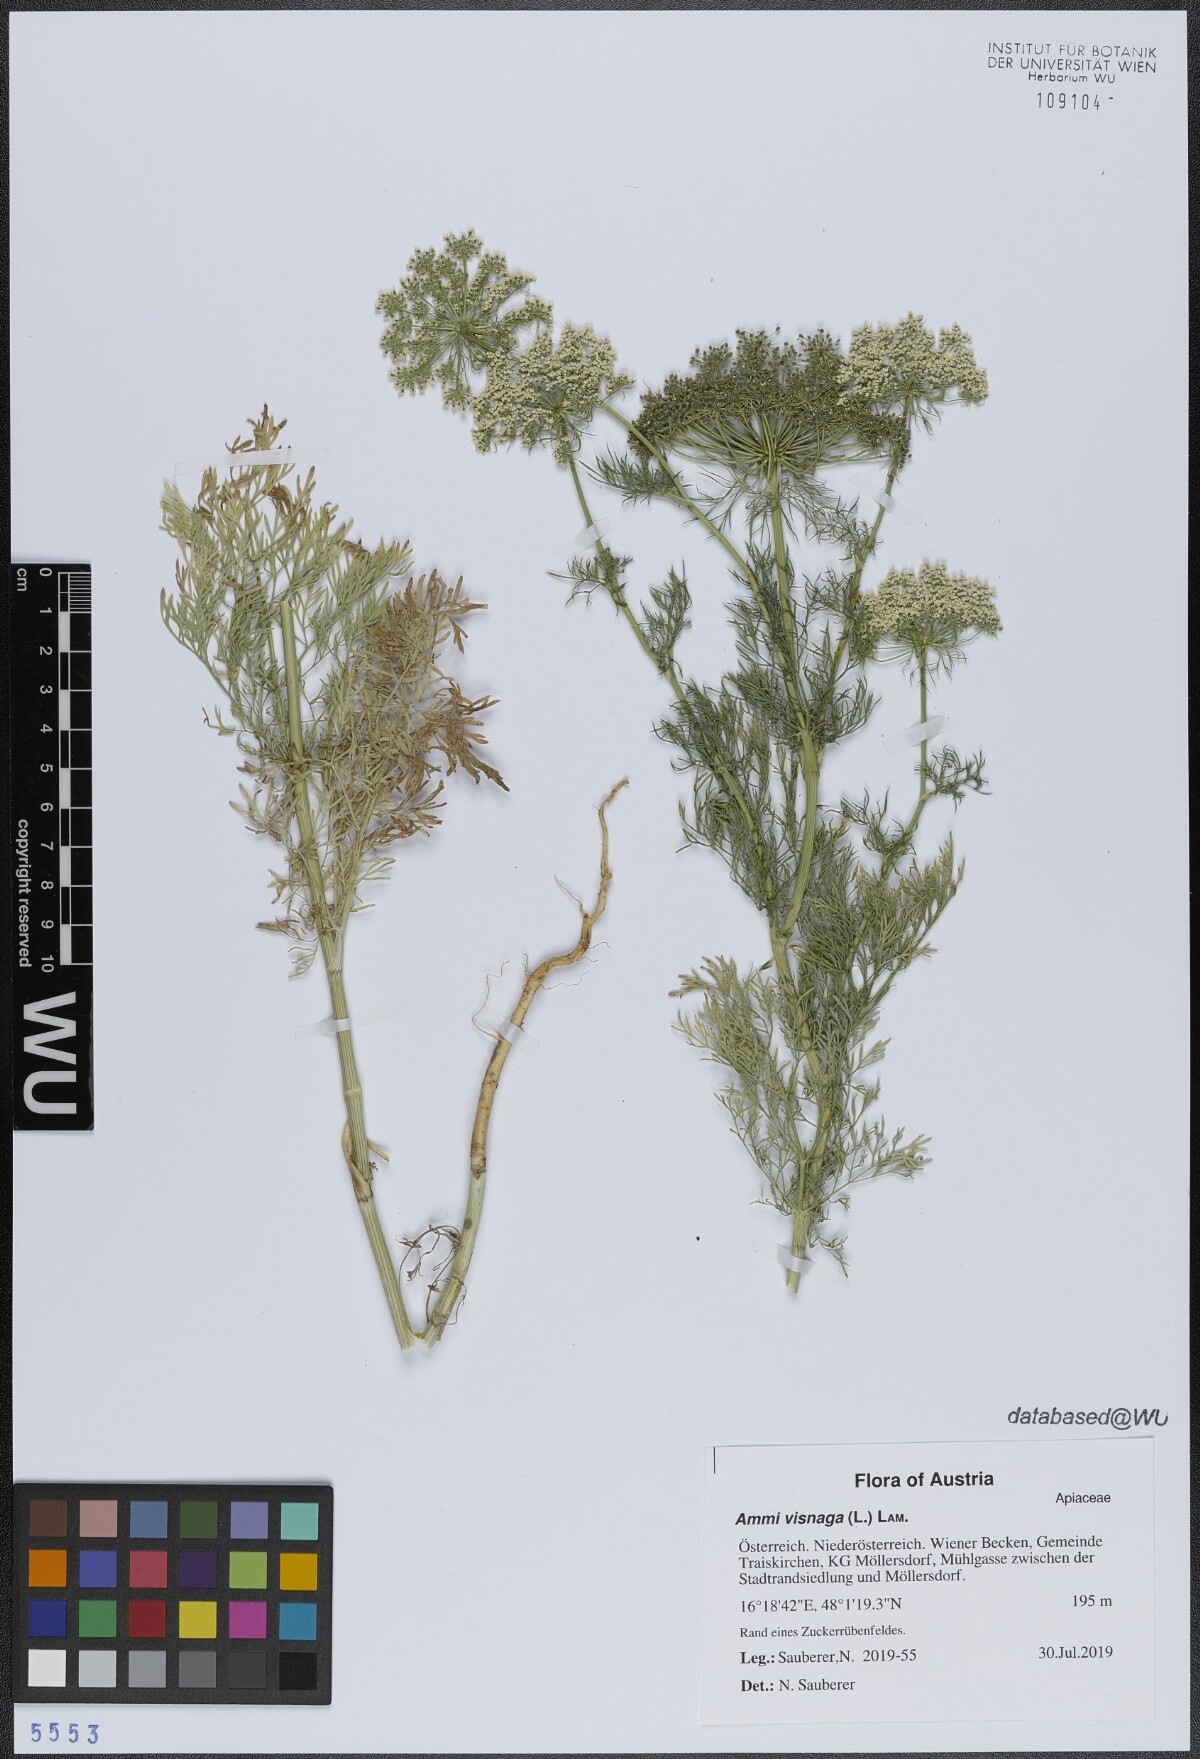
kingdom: Plantae
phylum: Tracheophyta
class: Magnoliopsida
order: Apiales
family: Apiaceae
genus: Visnaga
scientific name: Visnaga daucoides
